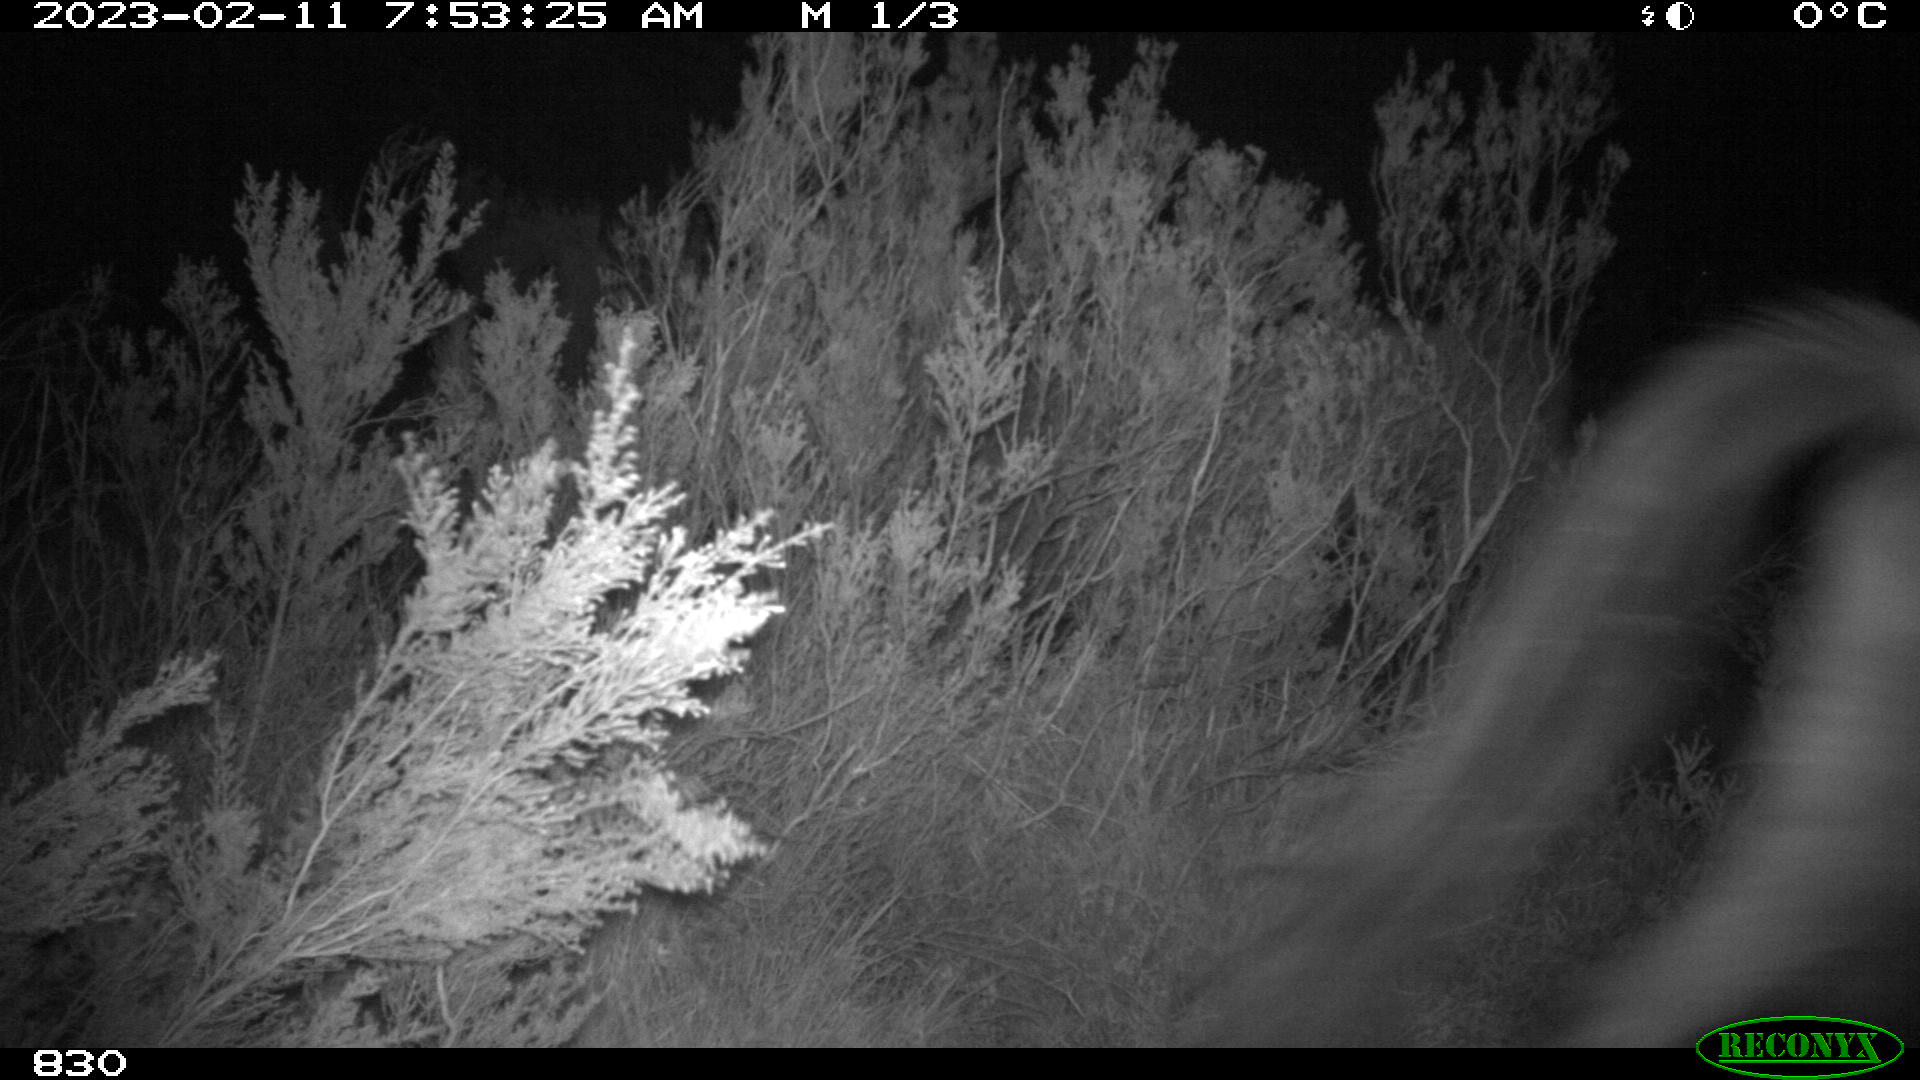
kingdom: Animalia
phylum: Chordata
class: Mammalia
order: Perissodactyla
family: Equidae
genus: Equus
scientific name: Equus caballus
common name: Horse
